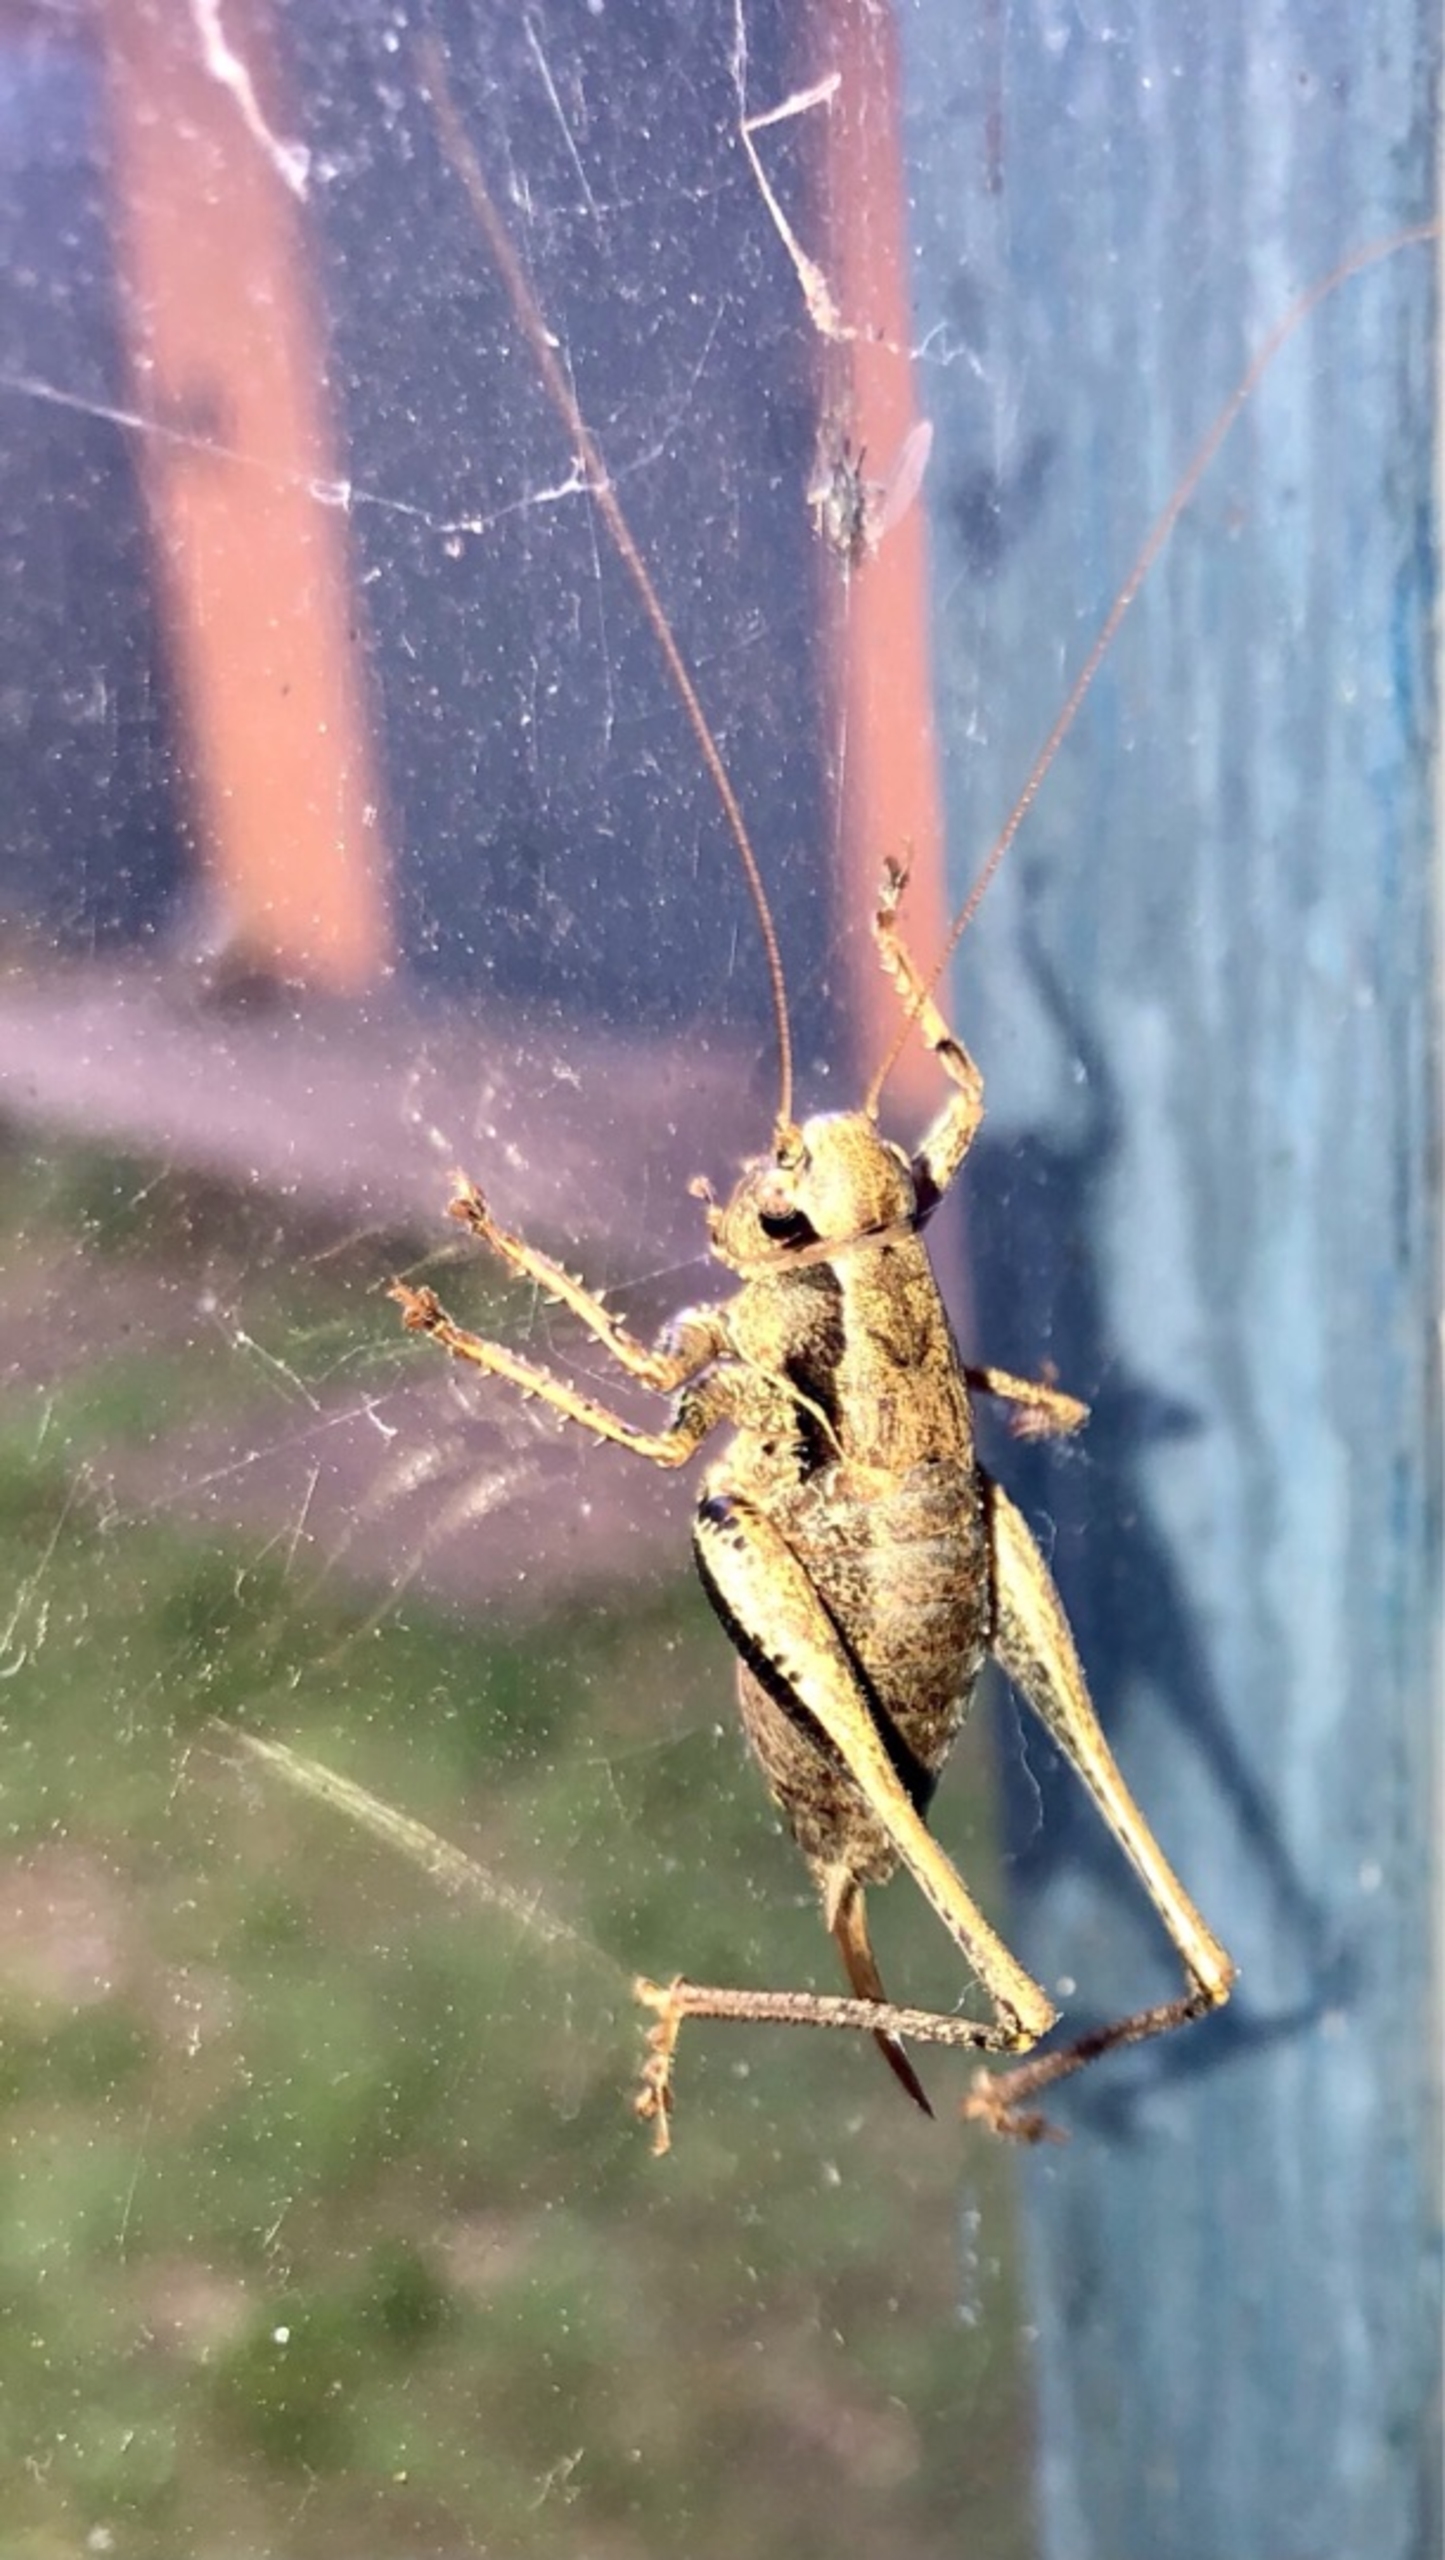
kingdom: Animalia
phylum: Arthropoda
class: Insecta
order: Orthoptera
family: Tettigoniidae
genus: Pholidoptera
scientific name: Pholidoptera griseoaptera
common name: Buskgræshoppe
